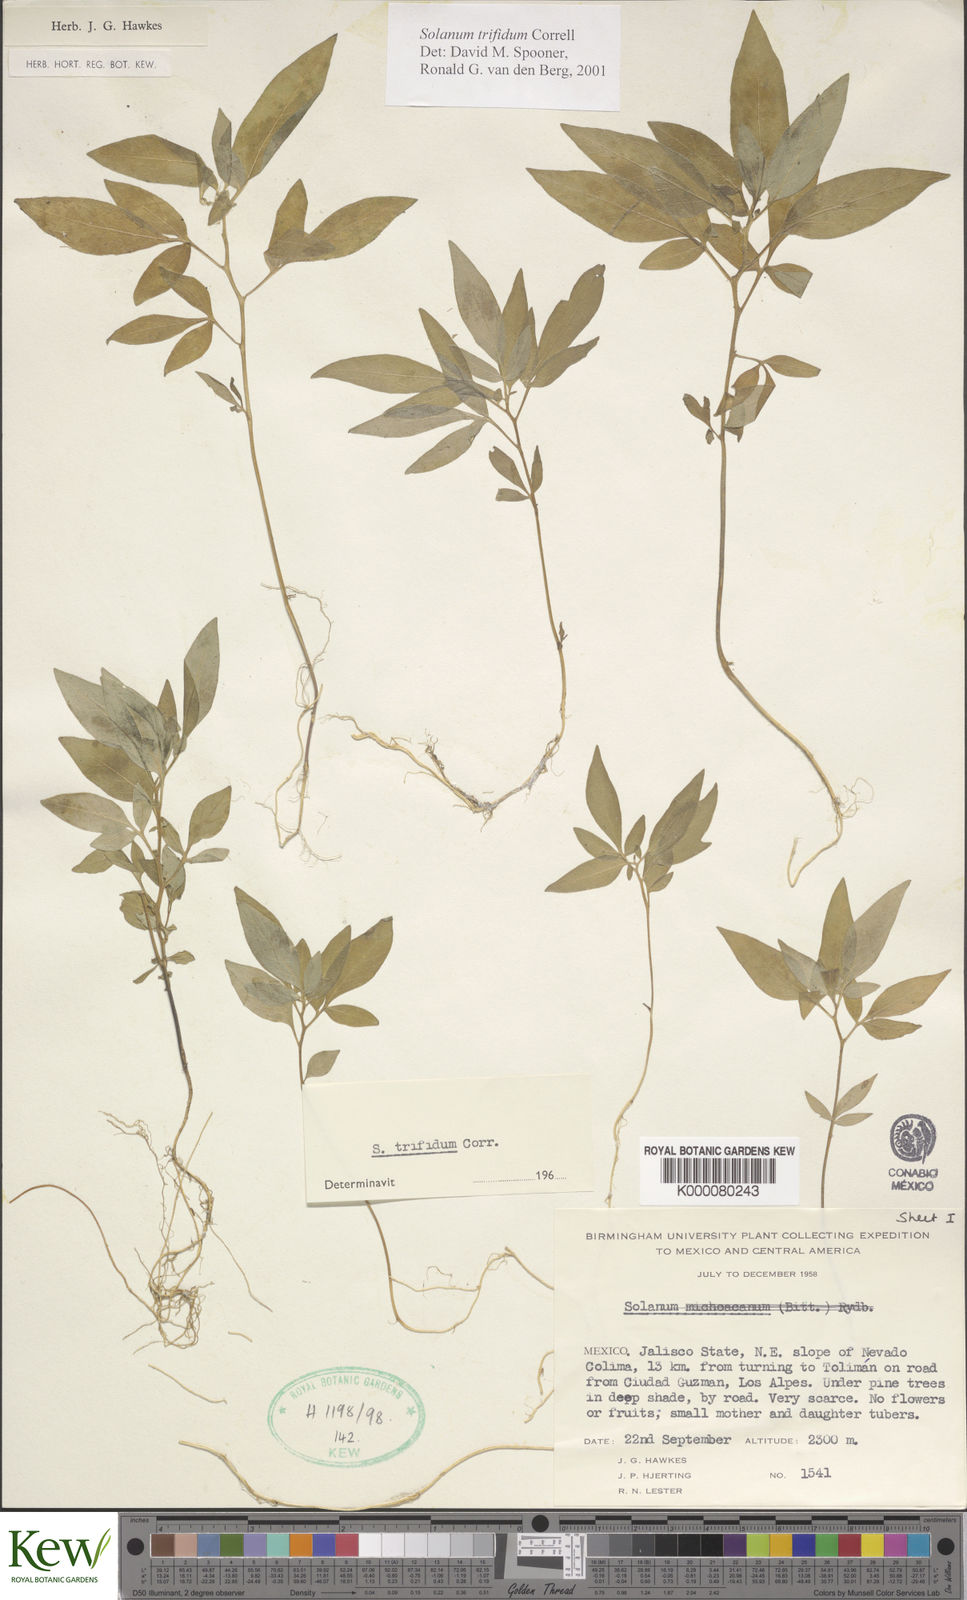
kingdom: Plantae
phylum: Tracheophyta
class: Magnoliopsida
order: Solanales
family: Solanaceae
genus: Solanum
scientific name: Solanum trifidum
